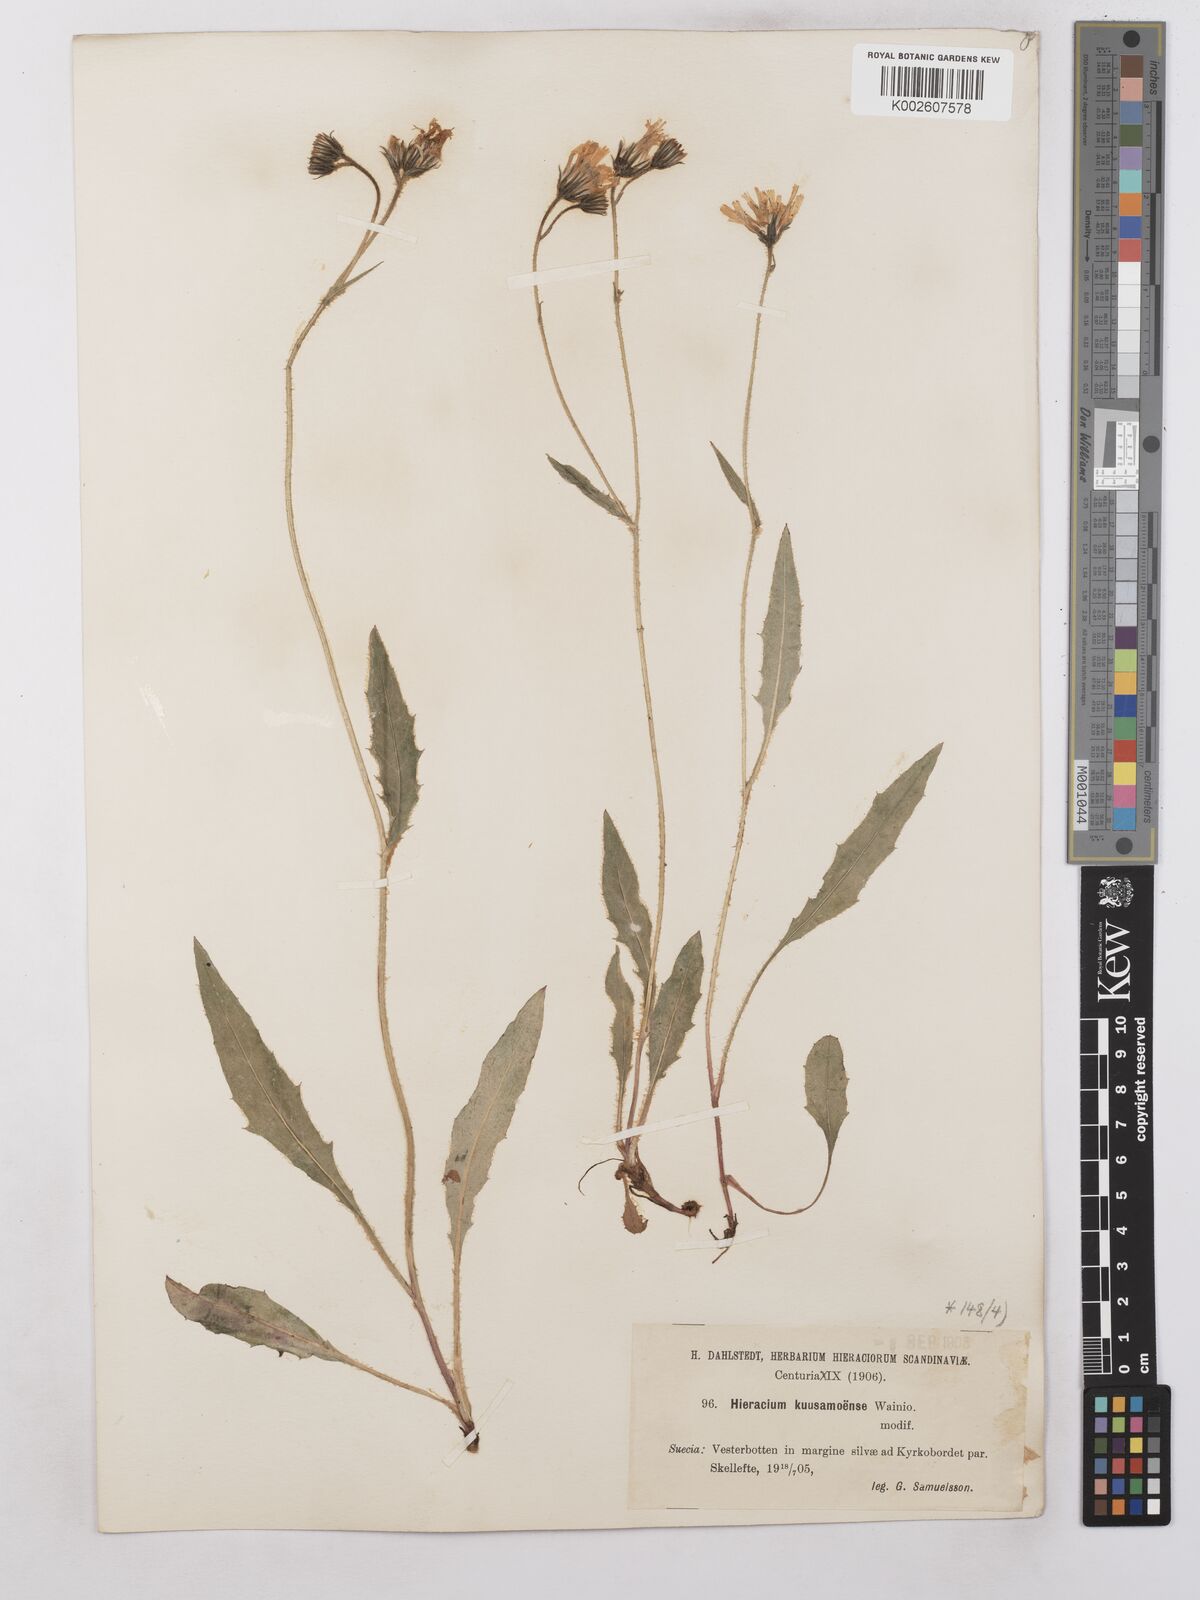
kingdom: Plantae
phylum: Tracheophyta
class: Magnoliopsida
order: Asterales
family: Asteraceae
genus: Hieracium
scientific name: Hieracium subramosum
